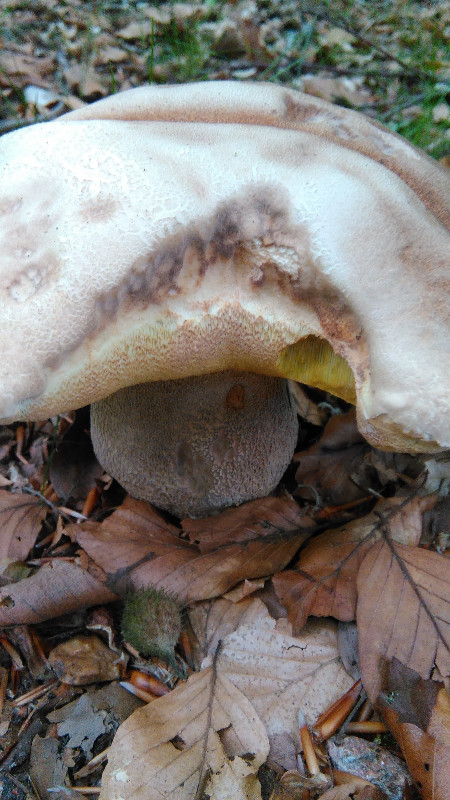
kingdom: Fungi
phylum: Basidiomycota
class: Agaricomycetes
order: Boletales
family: Boletaceae
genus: Boletus
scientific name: Boletus reticulatus
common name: sommer-rørhat
